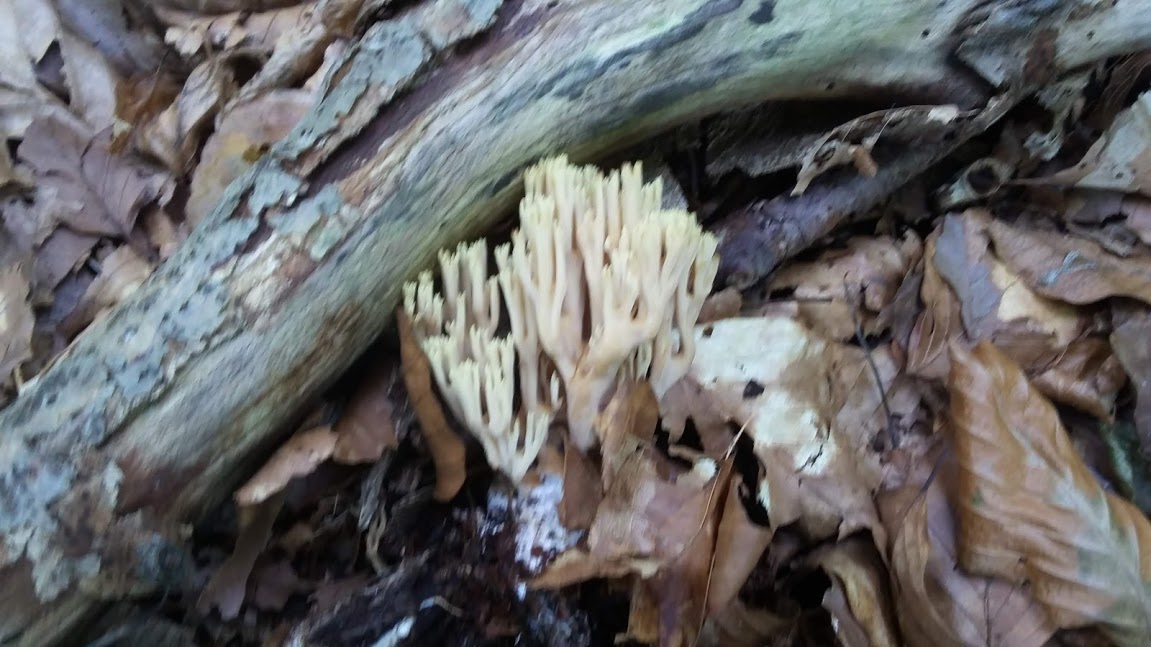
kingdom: Fungi
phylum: Basidiomycota
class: Agaricomycetes
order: Gomphales
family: Gomphaceae
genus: Ramaria
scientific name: Ramaria stricta
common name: rank koralsvamp
